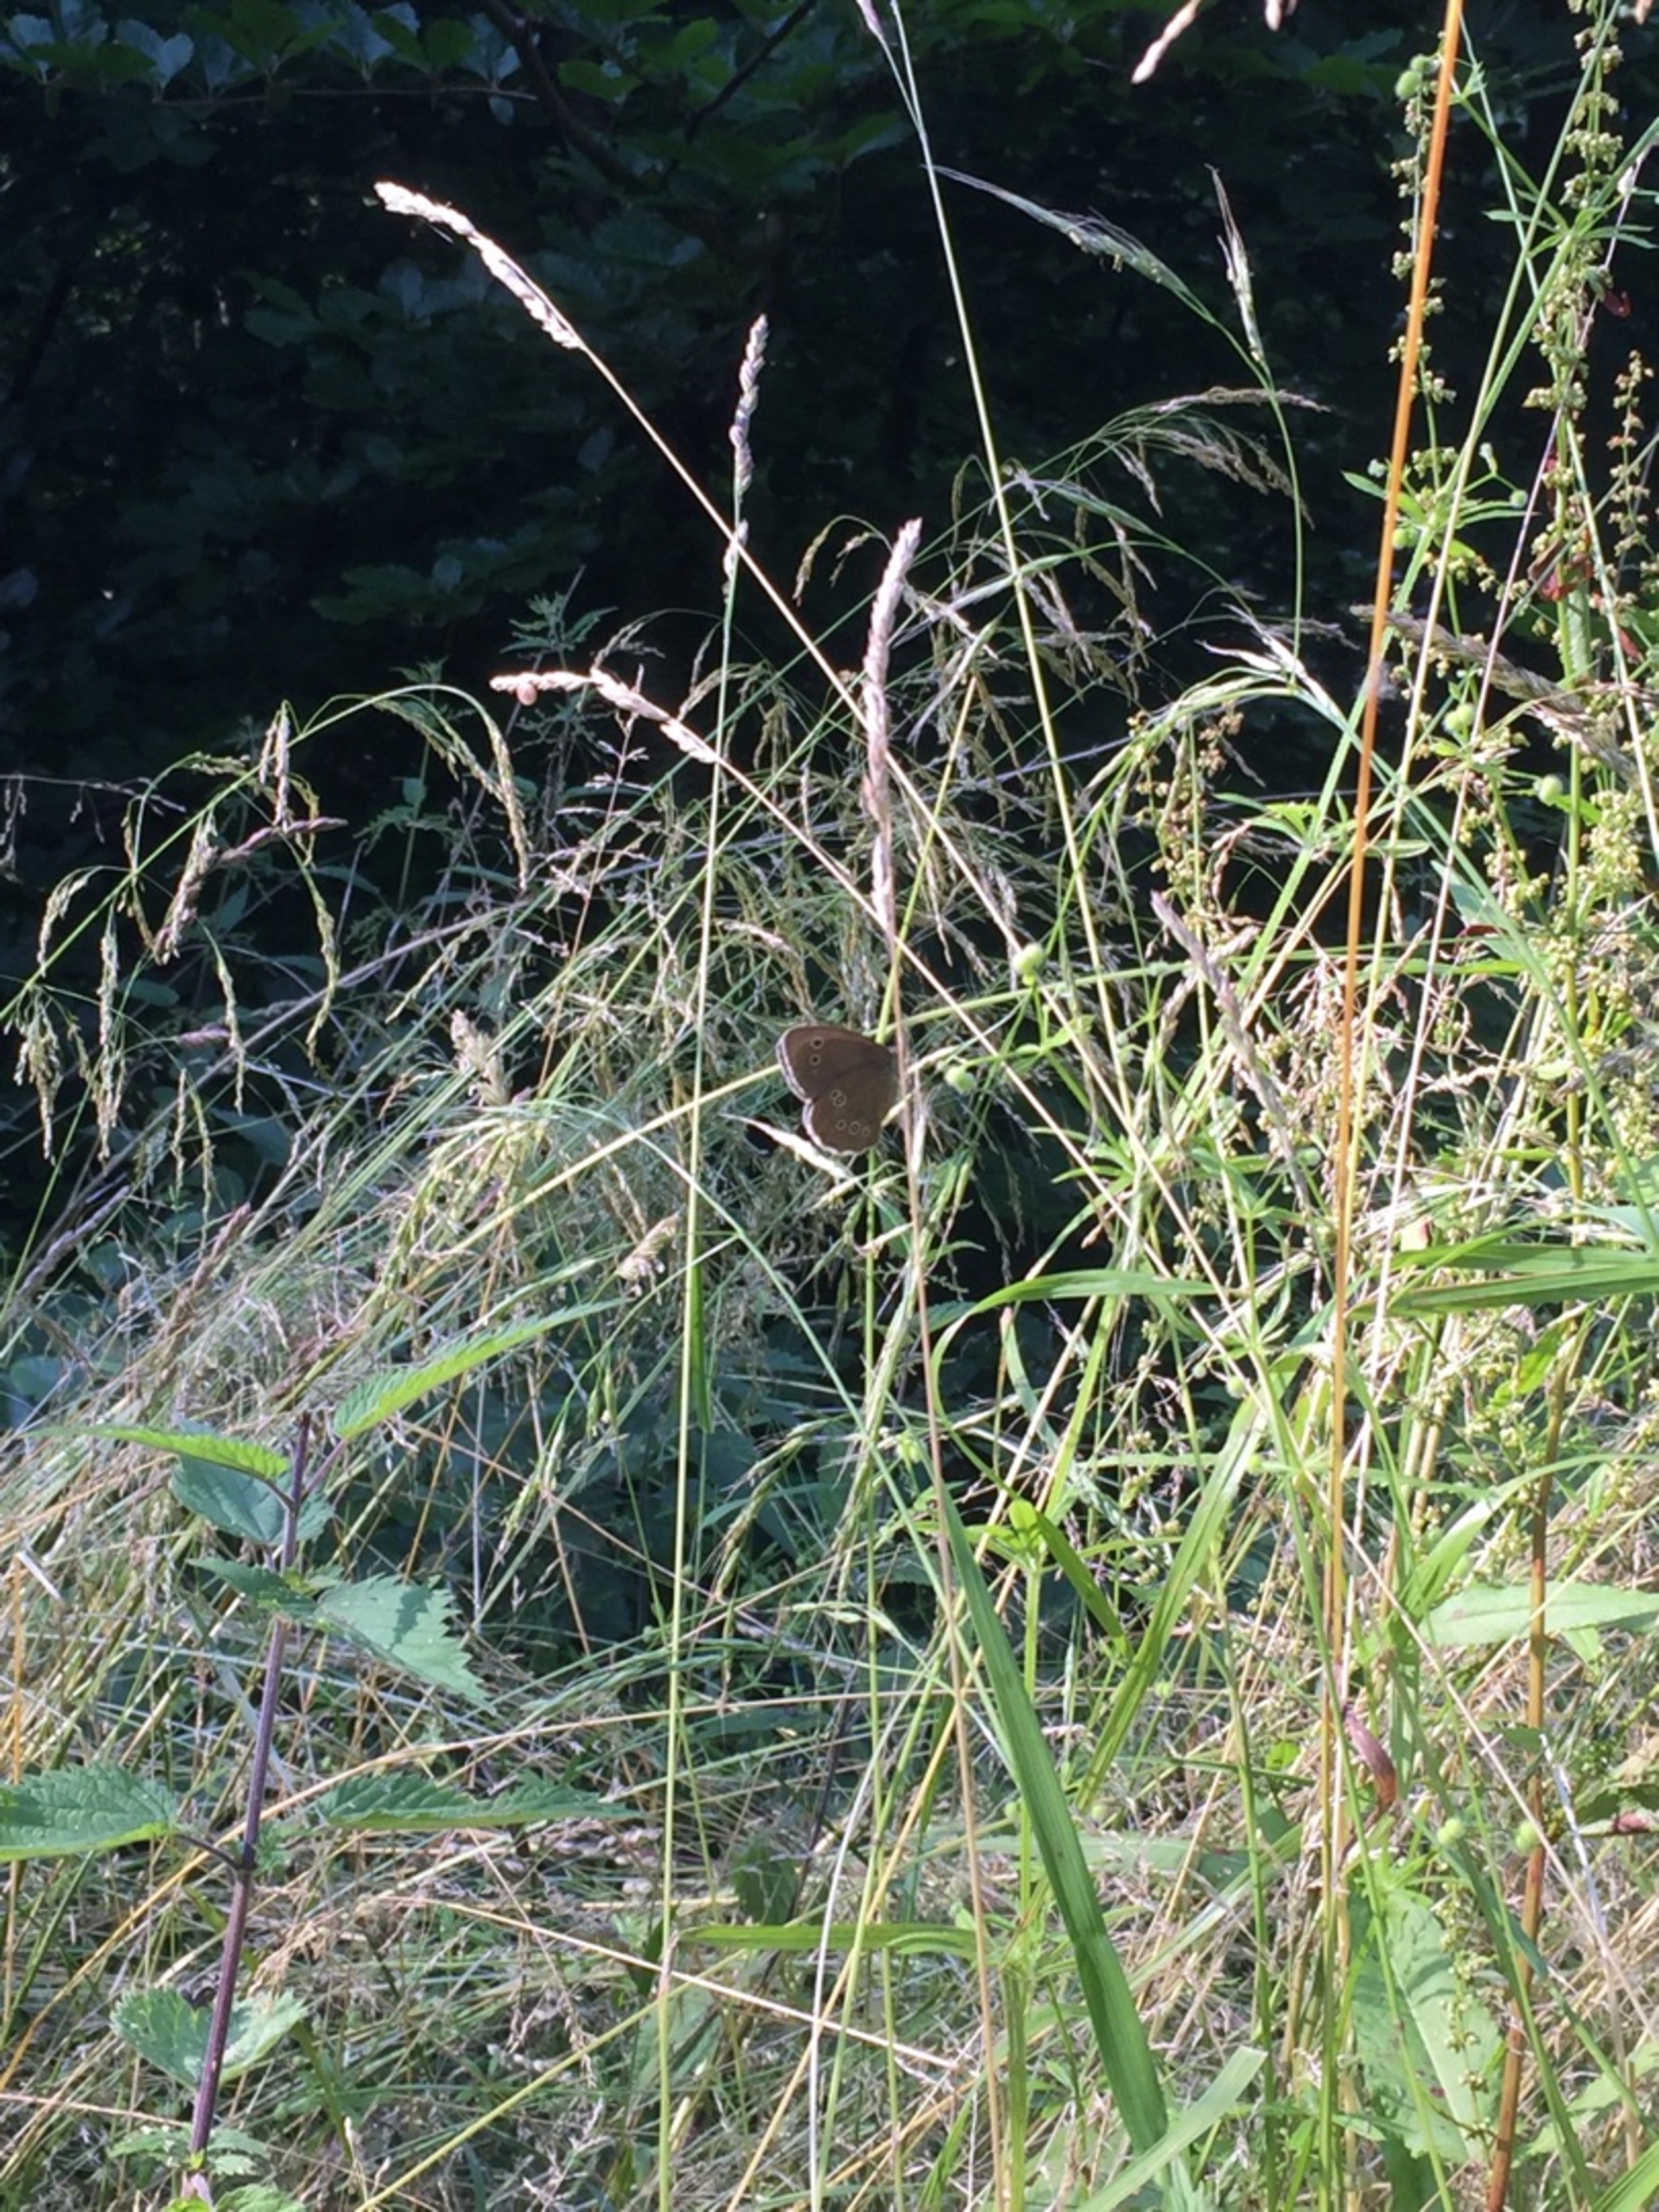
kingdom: Animalia
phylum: Arthropoda
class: Insecta
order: Lepidoptera
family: Nymphalidae
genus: Aphantopus
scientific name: Aphantopus hyperantus
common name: Engrandøje
